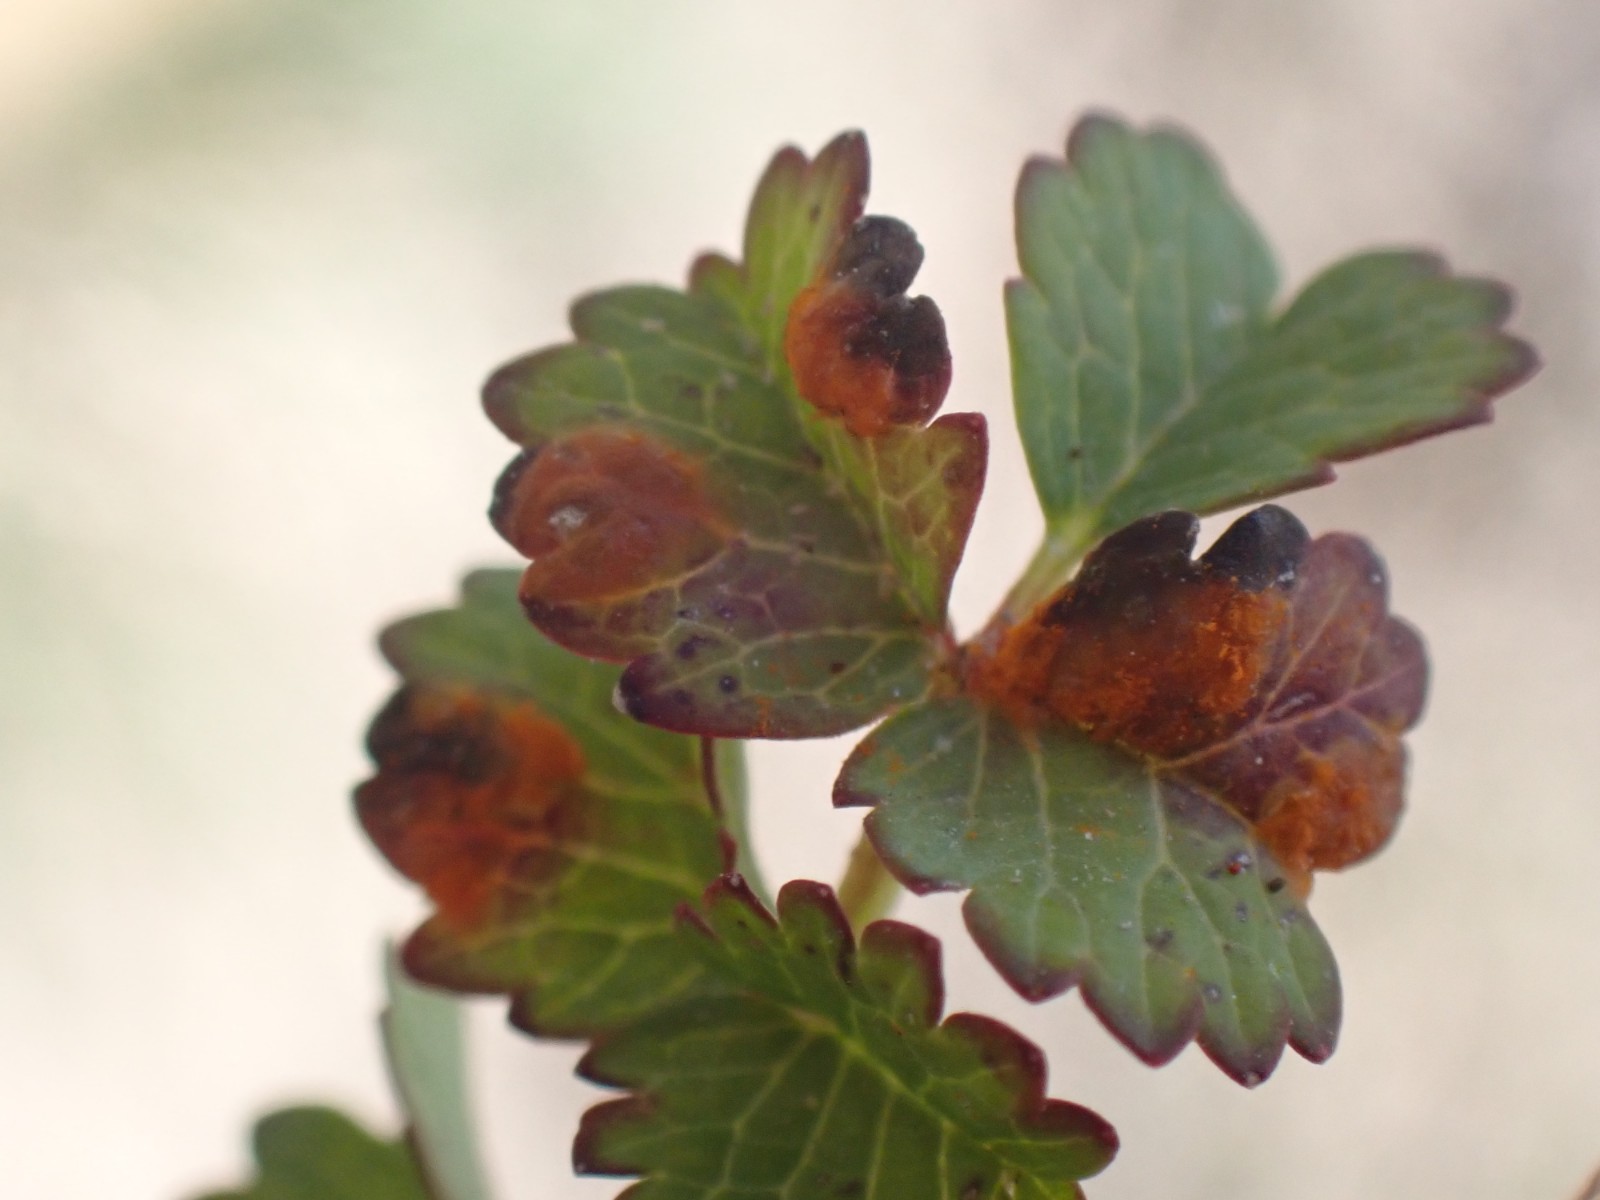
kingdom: Fungi
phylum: Basidiomycota
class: Pucciniomycetes
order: Pucciniales
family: Phragmidiaceae
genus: Phragmidium
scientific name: Phragmidium sanguisorbae
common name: Salad burnet rust
